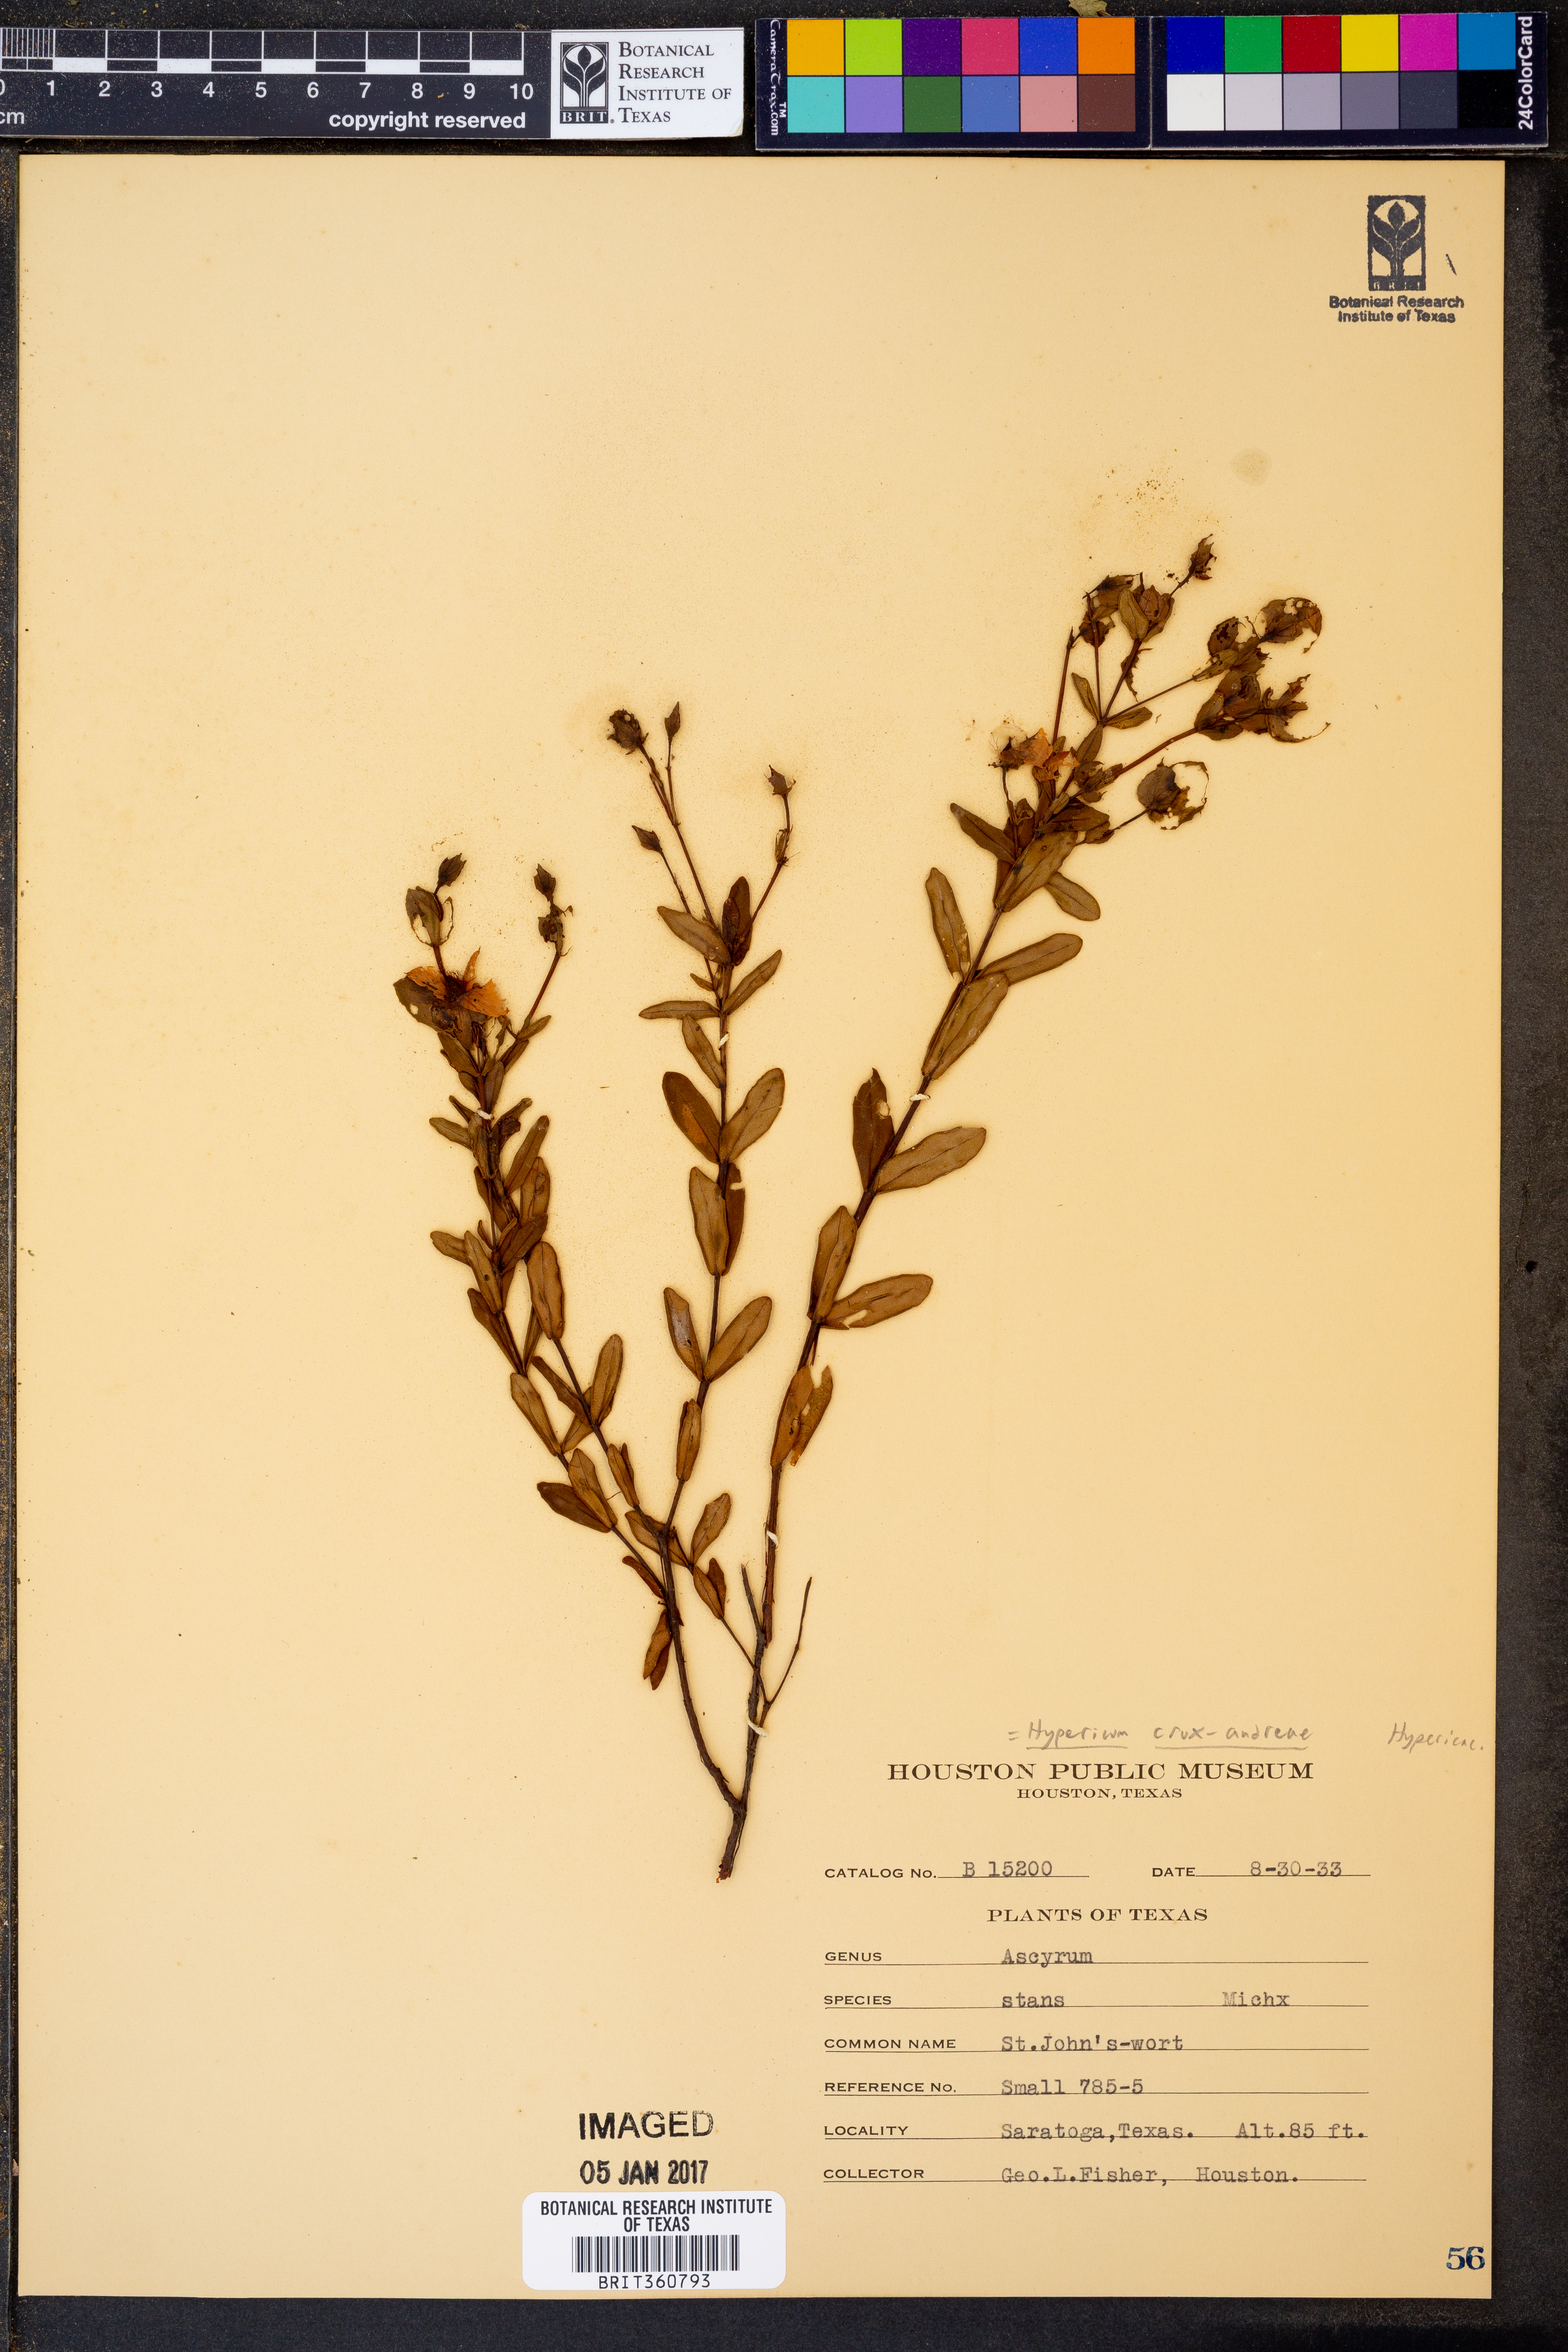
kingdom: Plantae
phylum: Tracheophyta
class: Magnoliopsida
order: Malpighiales
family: Hypericaceae
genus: Hypericum
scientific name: Hypericum crux-andreae
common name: St.-peter's-wort
